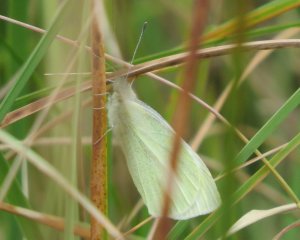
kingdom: Animalia
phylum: Arthropoda
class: Insecta
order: Lepidoptera
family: Pieridae
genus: Pieris
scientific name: Pieris rapae
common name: Cabbage White
